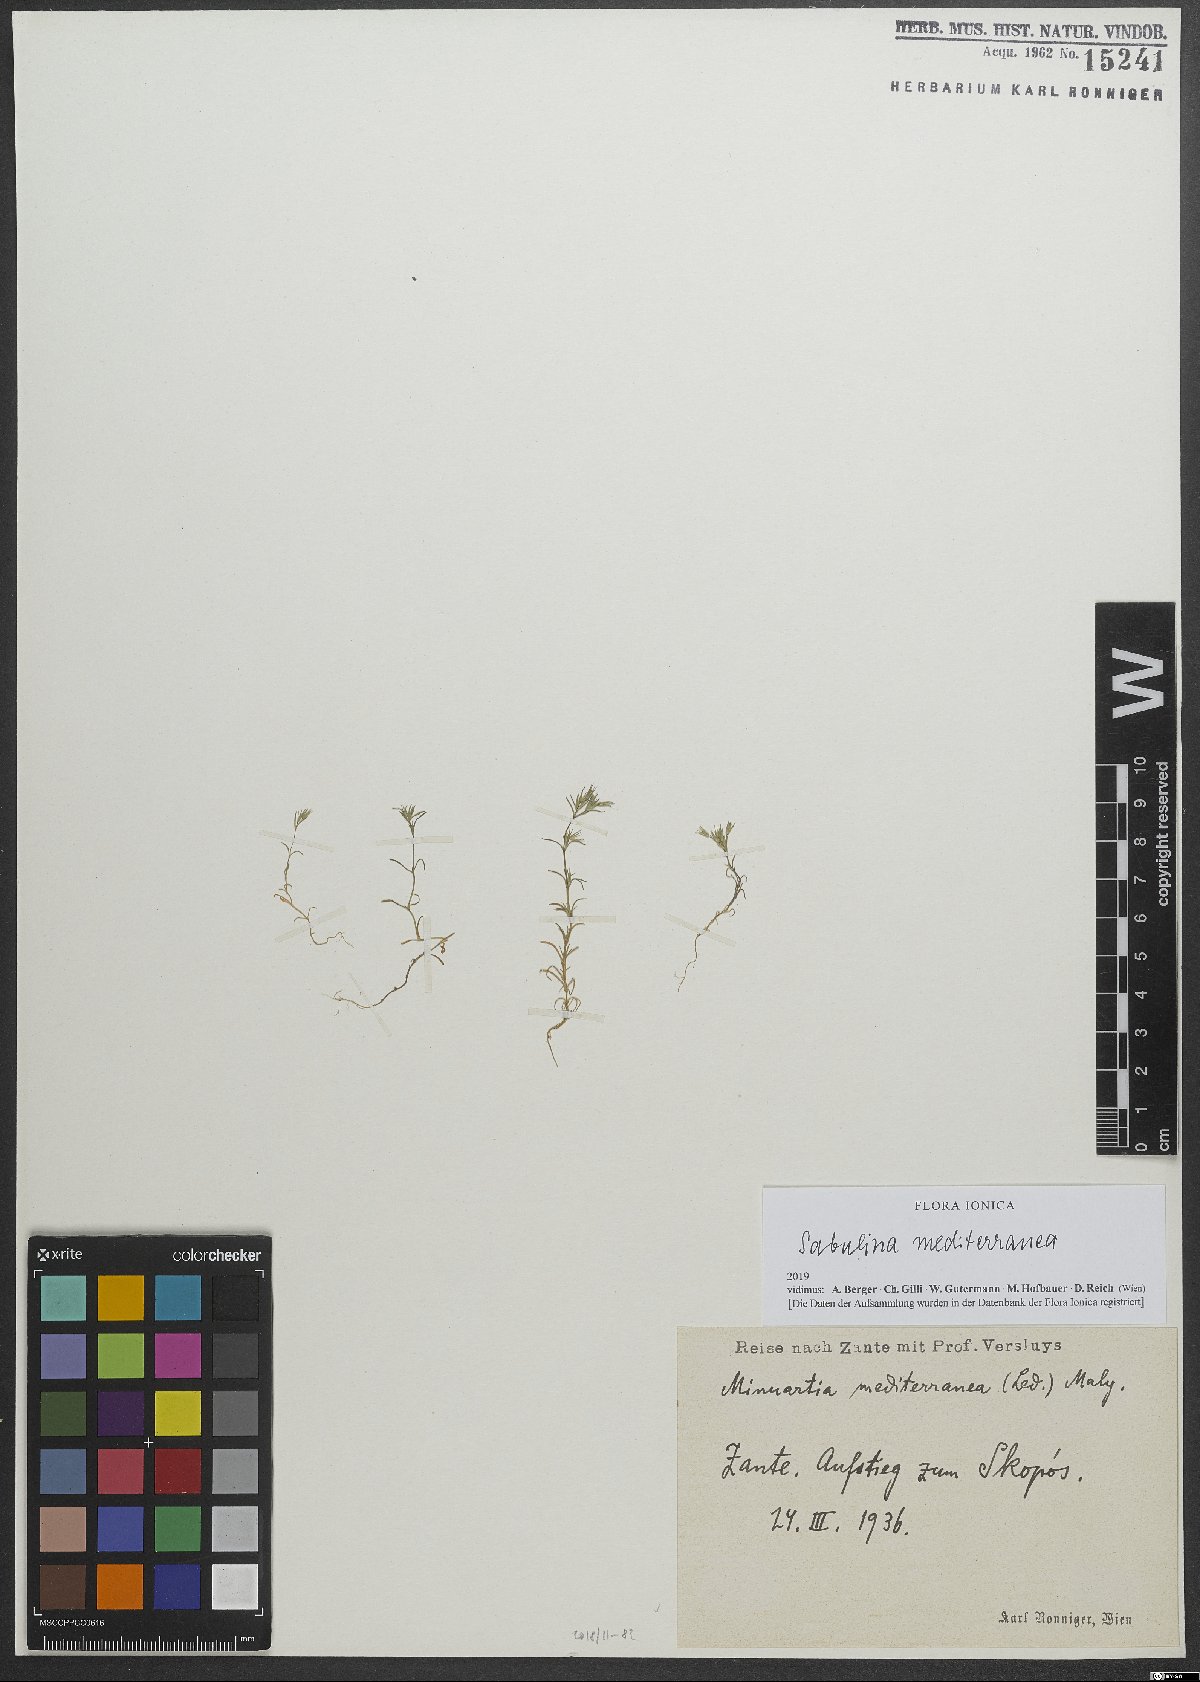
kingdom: Plantae
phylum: Tracheophyta
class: Magnoliopsida
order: Caryophyllales
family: Caryophyllaceae
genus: Sabulina
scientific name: Sabulina mediterranea
